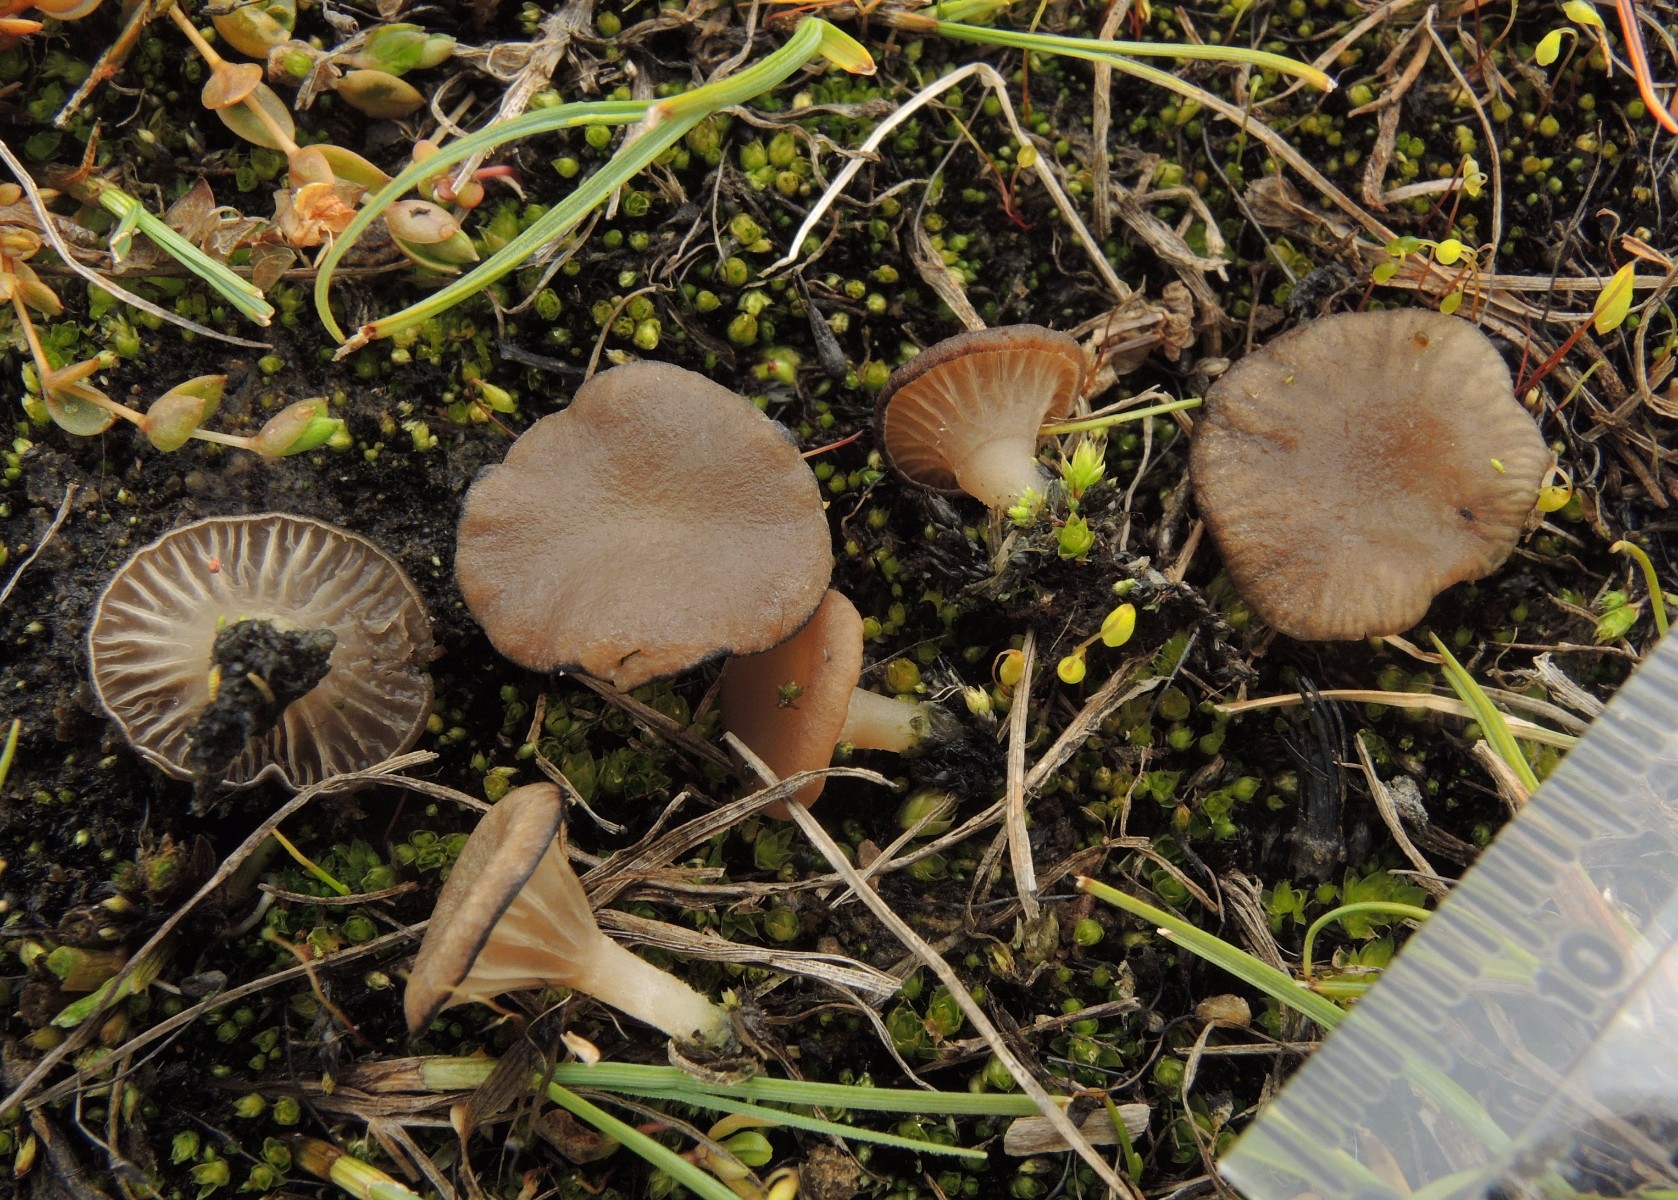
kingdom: Fungi
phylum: Basidiomycota
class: Agaricomycetes
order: Agaricales
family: Hygrophoraceae
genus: Arrhenia
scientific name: Arrhenia salina
